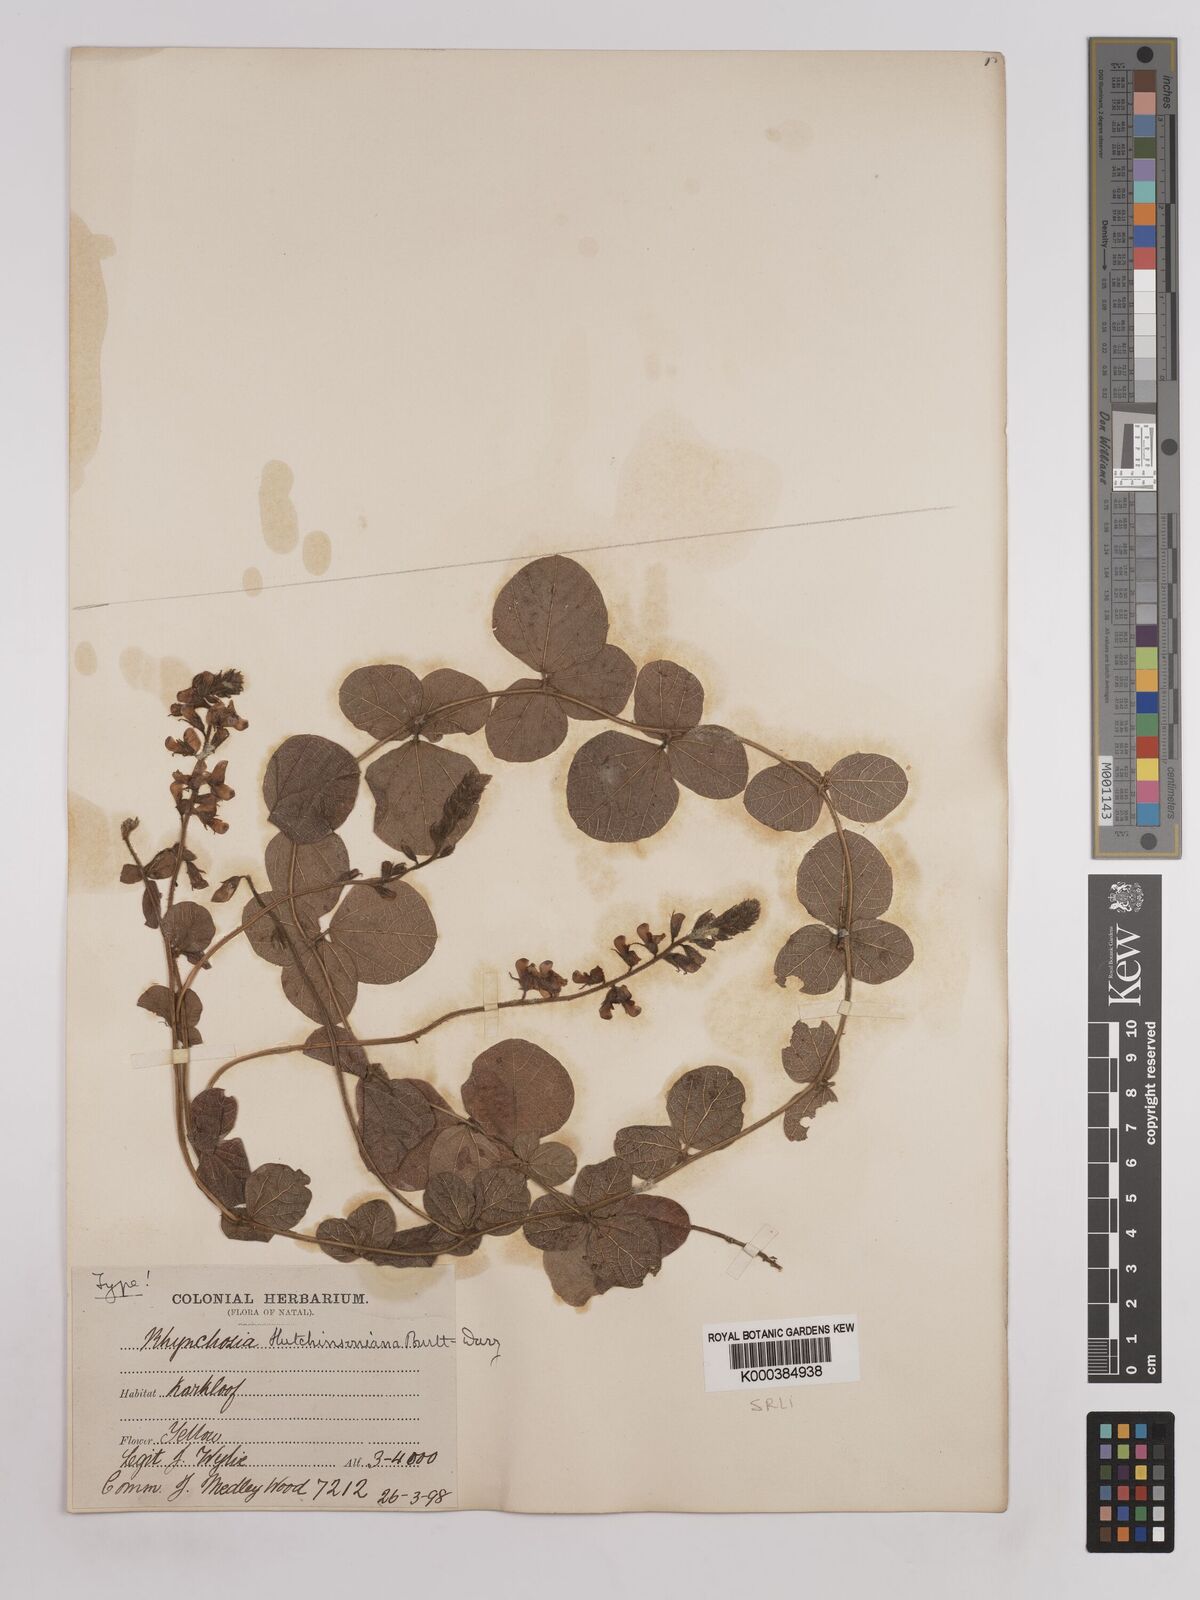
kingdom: Plantae
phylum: Tracheophyta
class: Magnoliopsida
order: Fabales
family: Fabaceae
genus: Rhynchosia
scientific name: Rhynchosia pentheri
